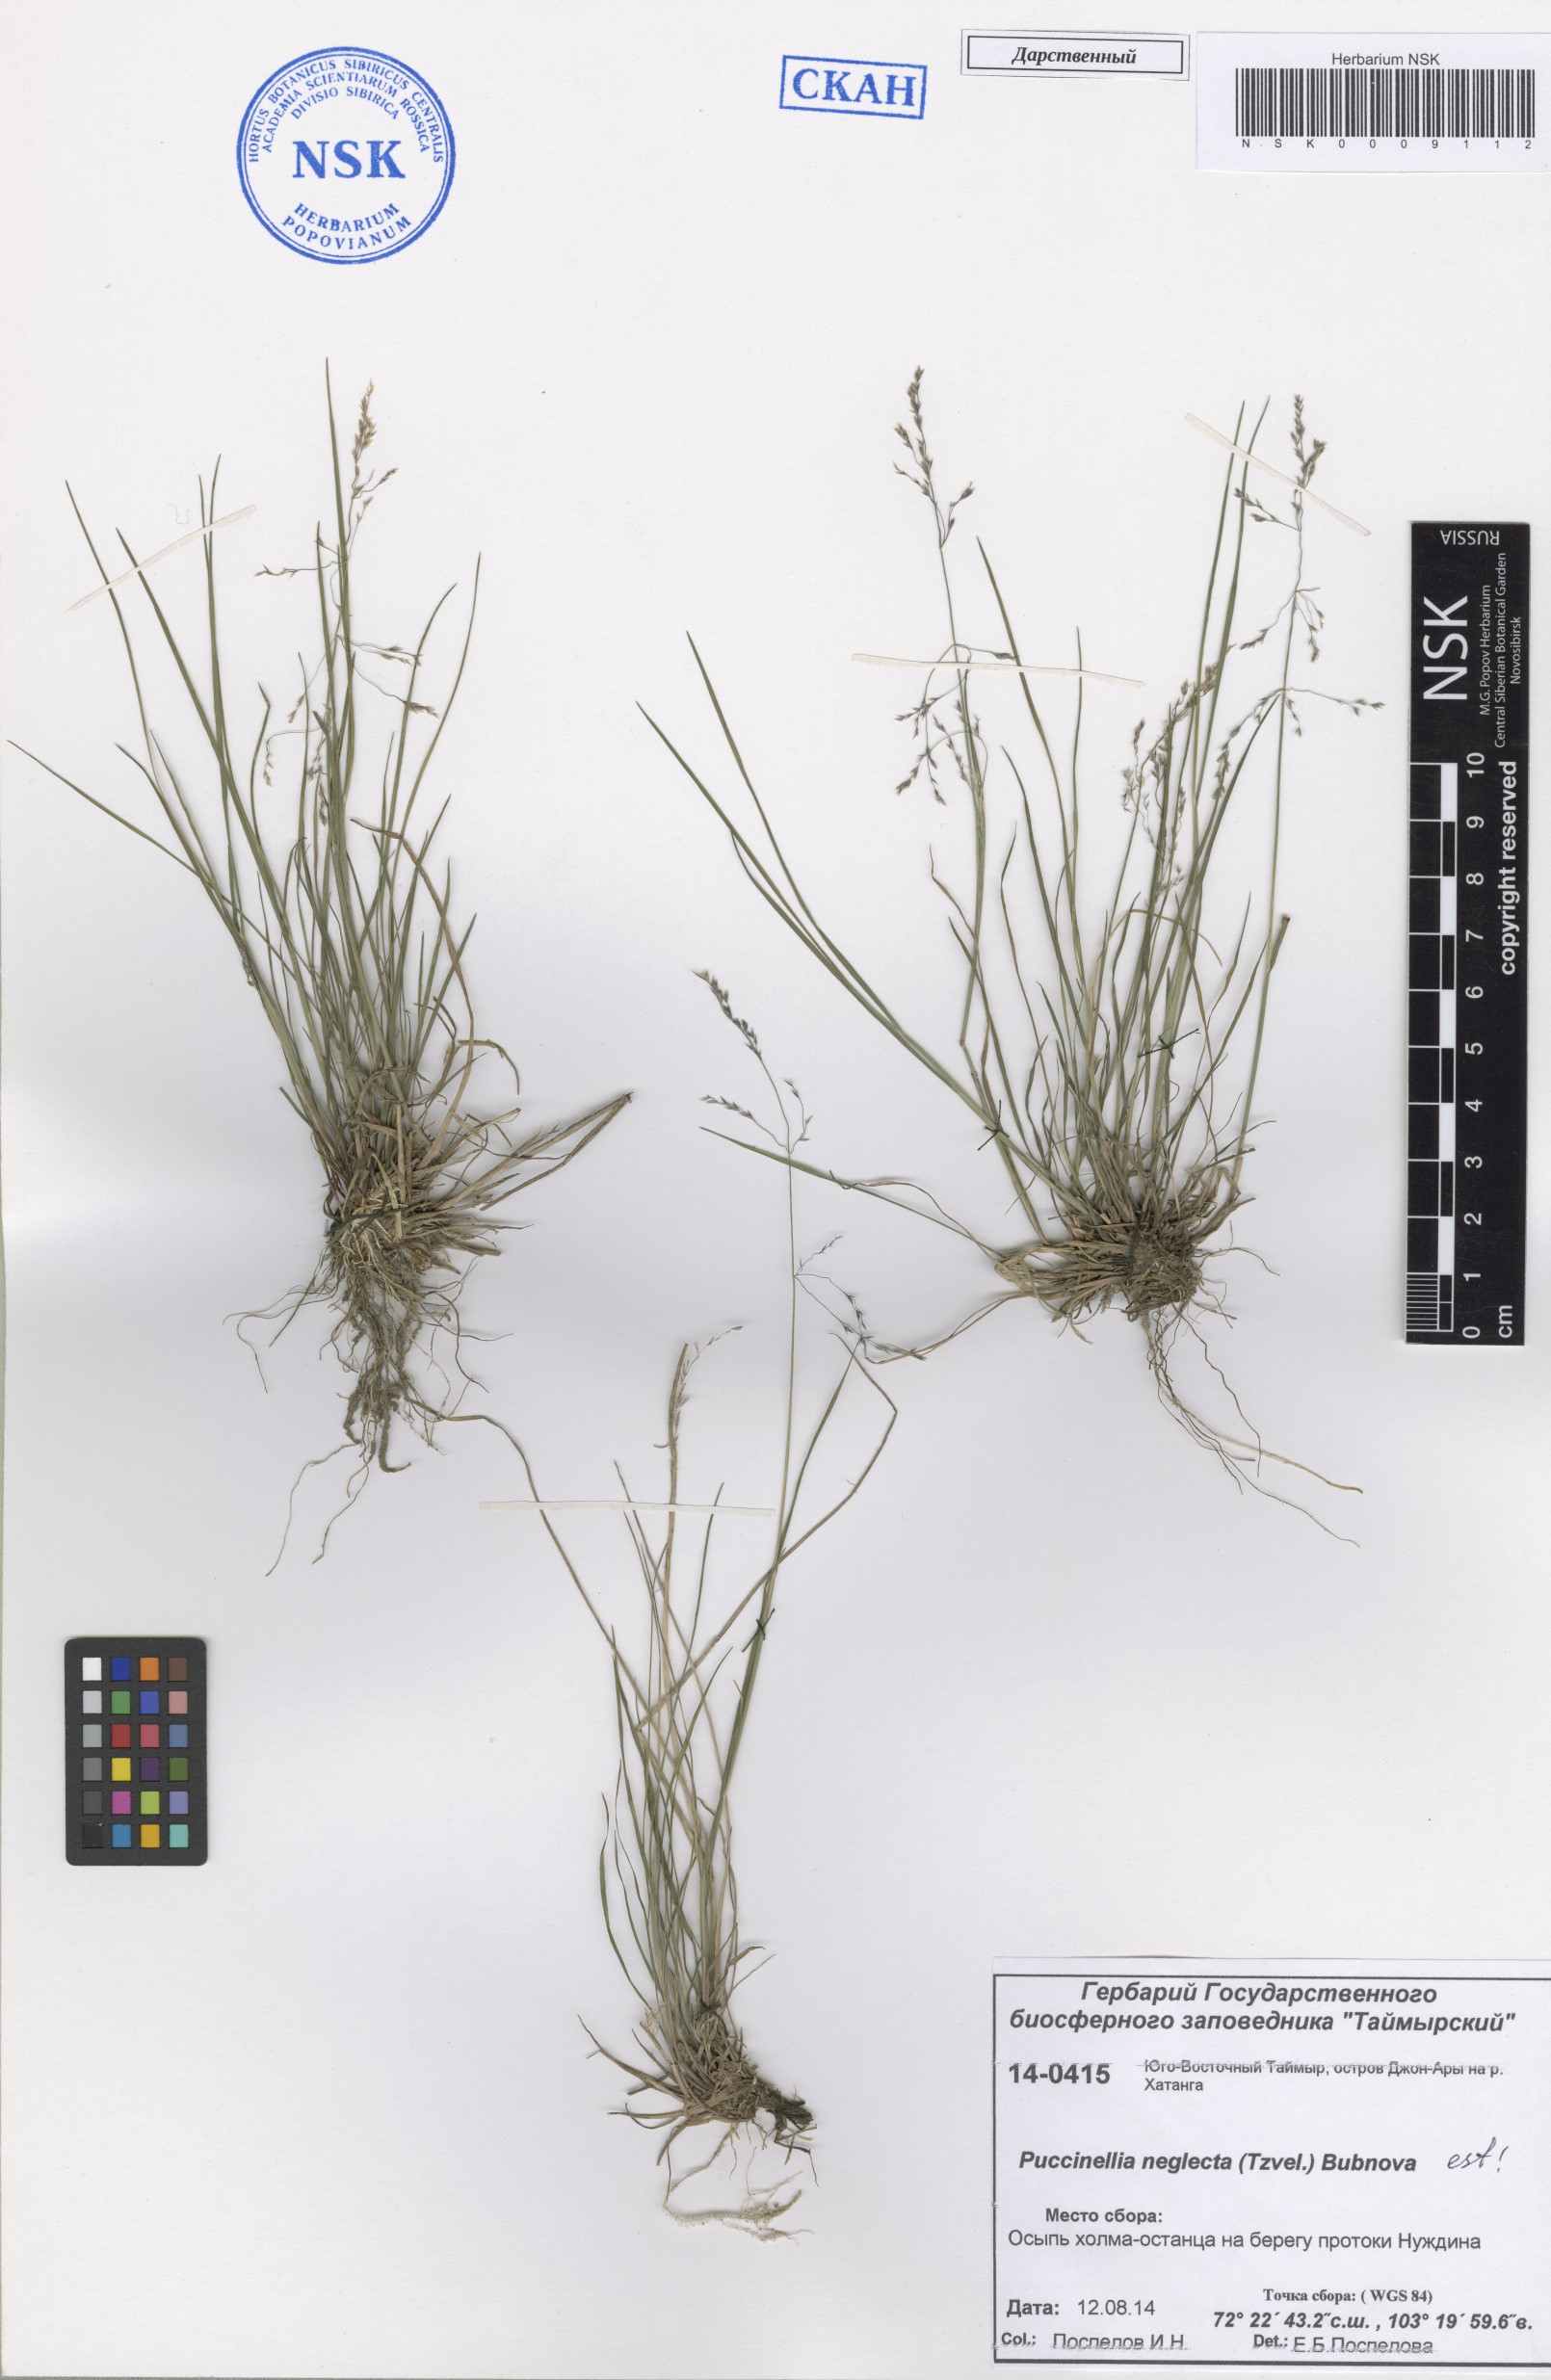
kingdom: Plantae
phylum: Tracheophyta
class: Liliopsida
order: Poales
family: Poaceae
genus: Puccinellia
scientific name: Puccinellia nuttalliana
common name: Nuttall's alkali grass
